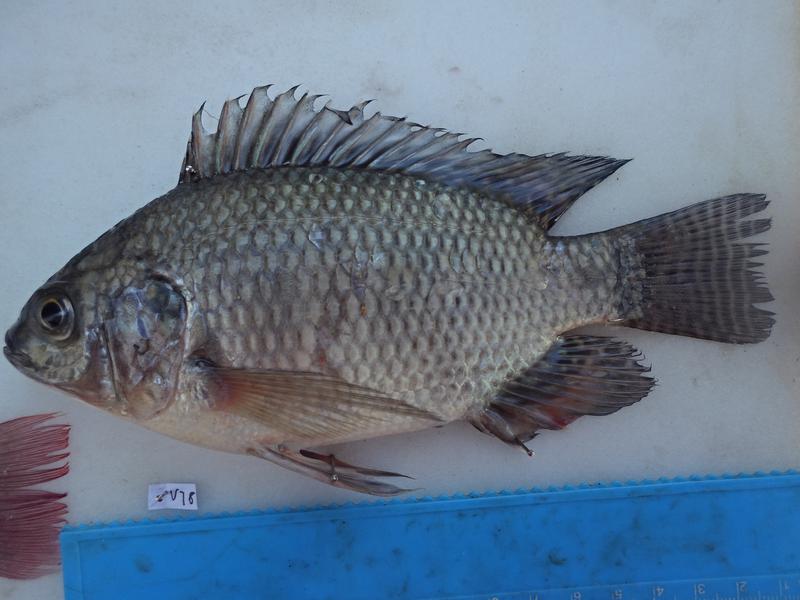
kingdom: Animalia
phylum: Chordata
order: Perciformes
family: Cichlidae
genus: Oreochromis
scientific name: Oreochromis niloticus
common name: Nile tilapia
